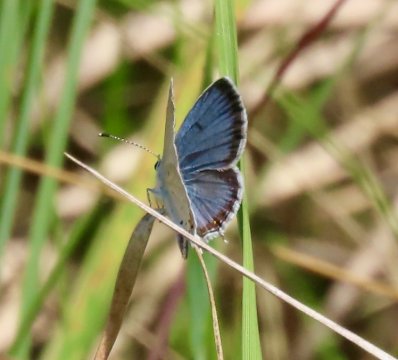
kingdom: Animalia
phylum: Arthropoda
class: Insecta
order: Lepidoptera
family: Lycaenidae
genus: Elkalyce
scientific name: Elkalyce comyntas
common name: Eastern Tailed-Blue
